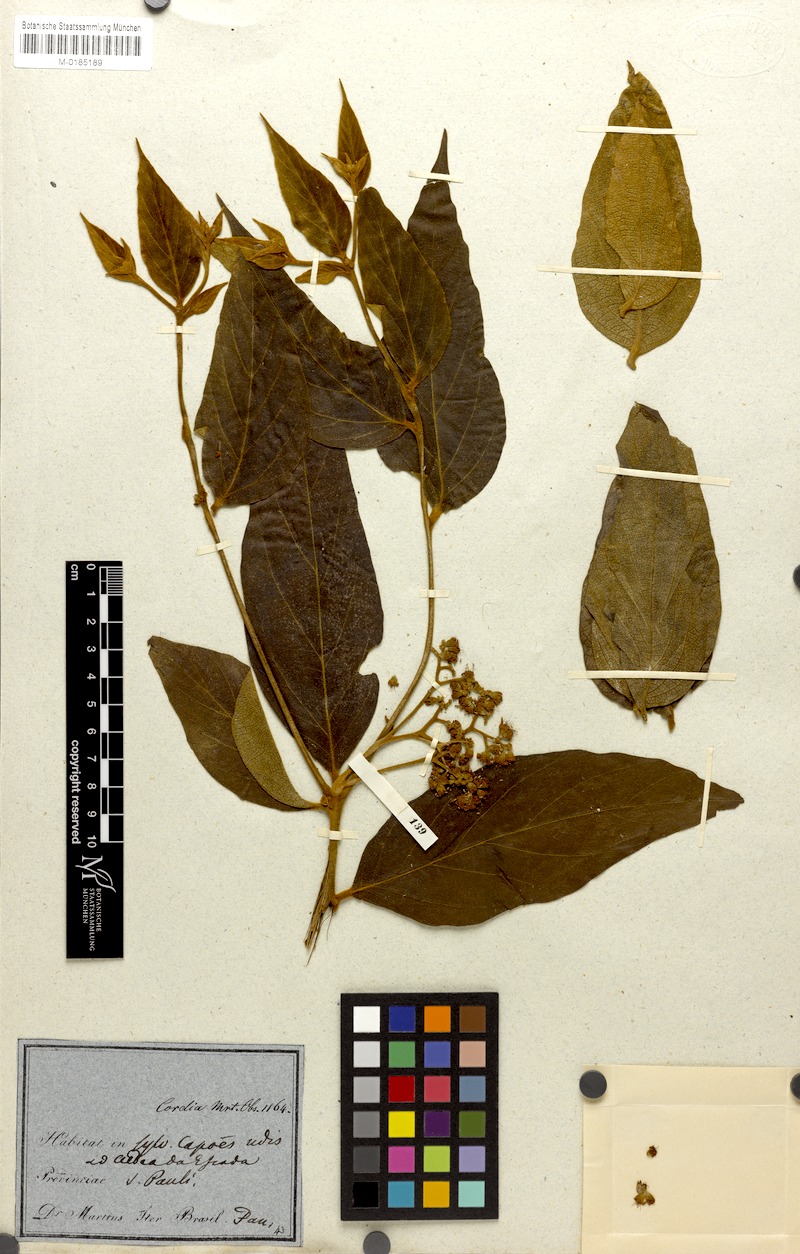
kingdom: Plantae
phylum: Tracheophyta
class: Magnoliopsida
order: Boraginales
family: Cordiaceae
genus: Cordia
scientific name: Cordia sellowiana
